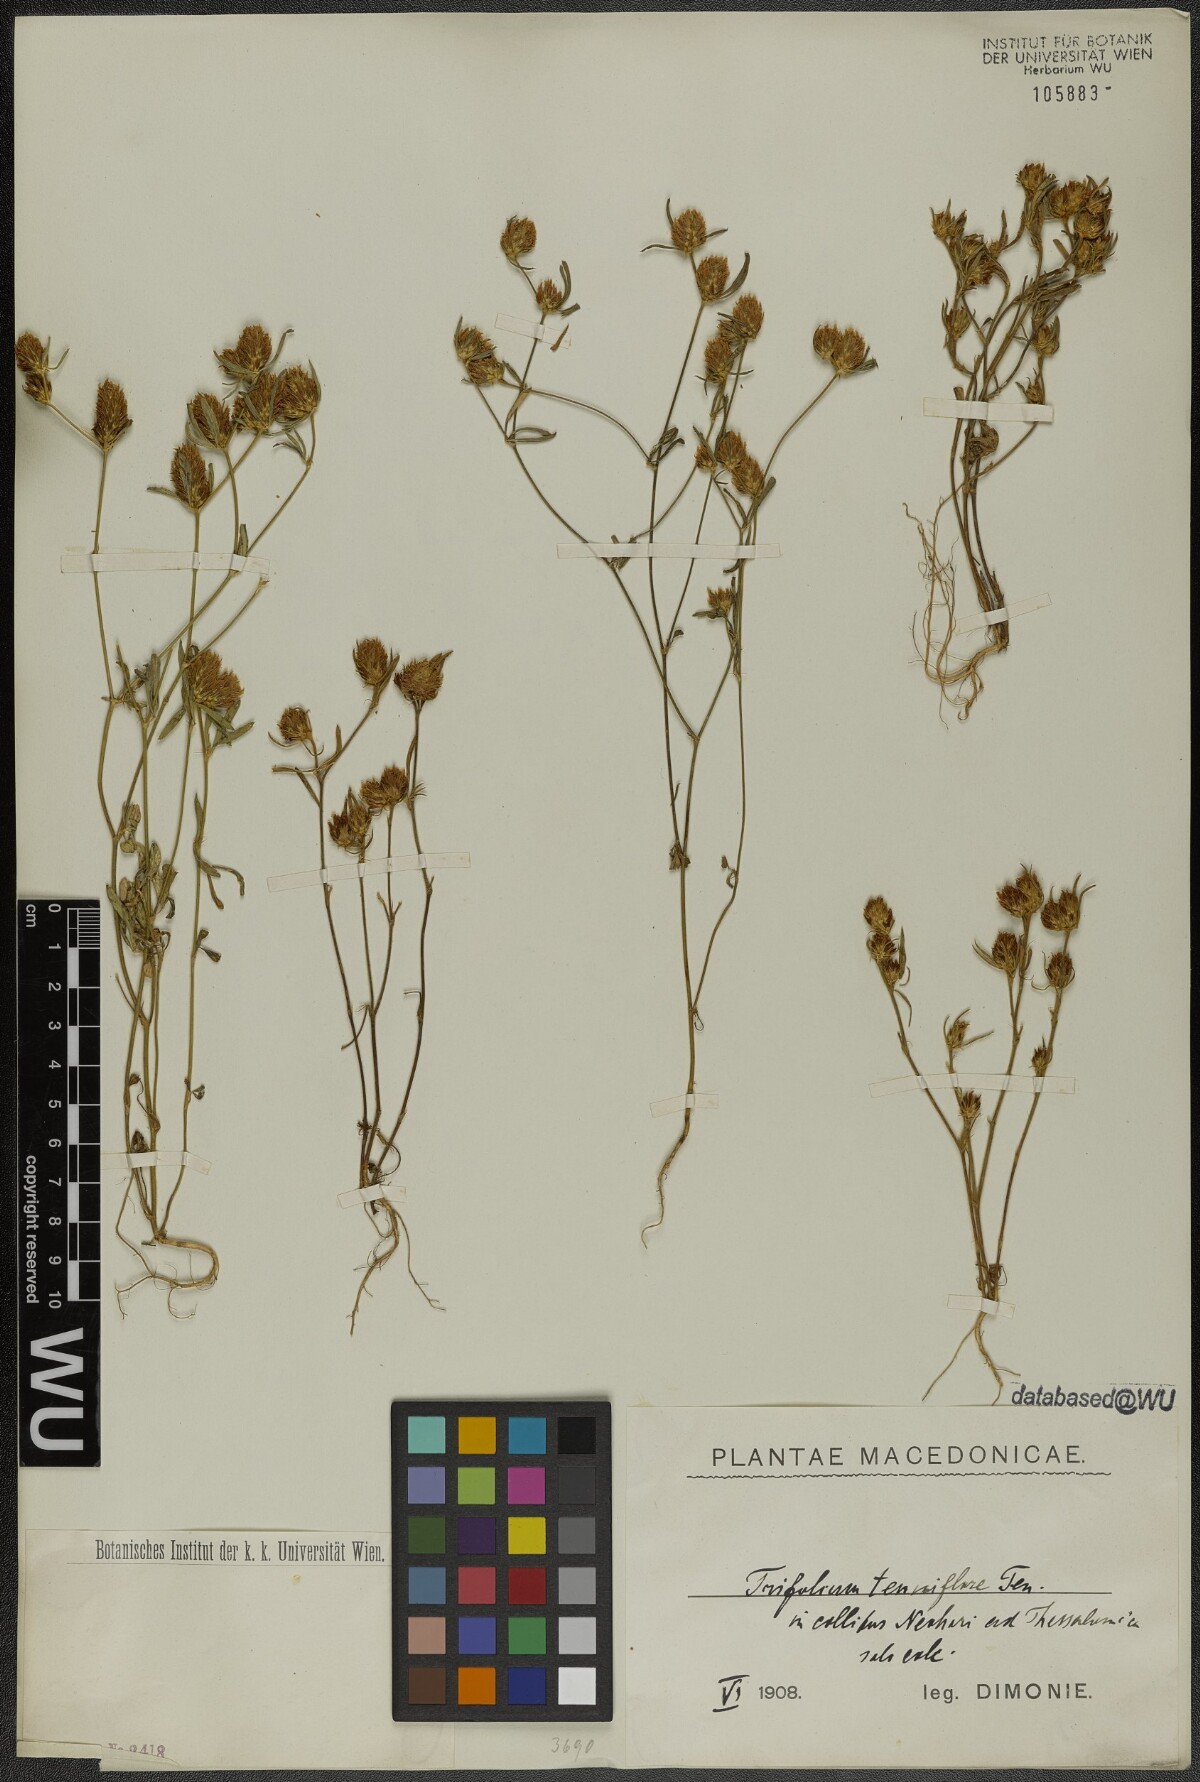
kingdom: Plantae
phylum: Tracheophyta
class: Magnoliopsida
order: Fabales
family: Fabaceae
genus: Trifolium
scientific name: Trifolium tenuifolium
